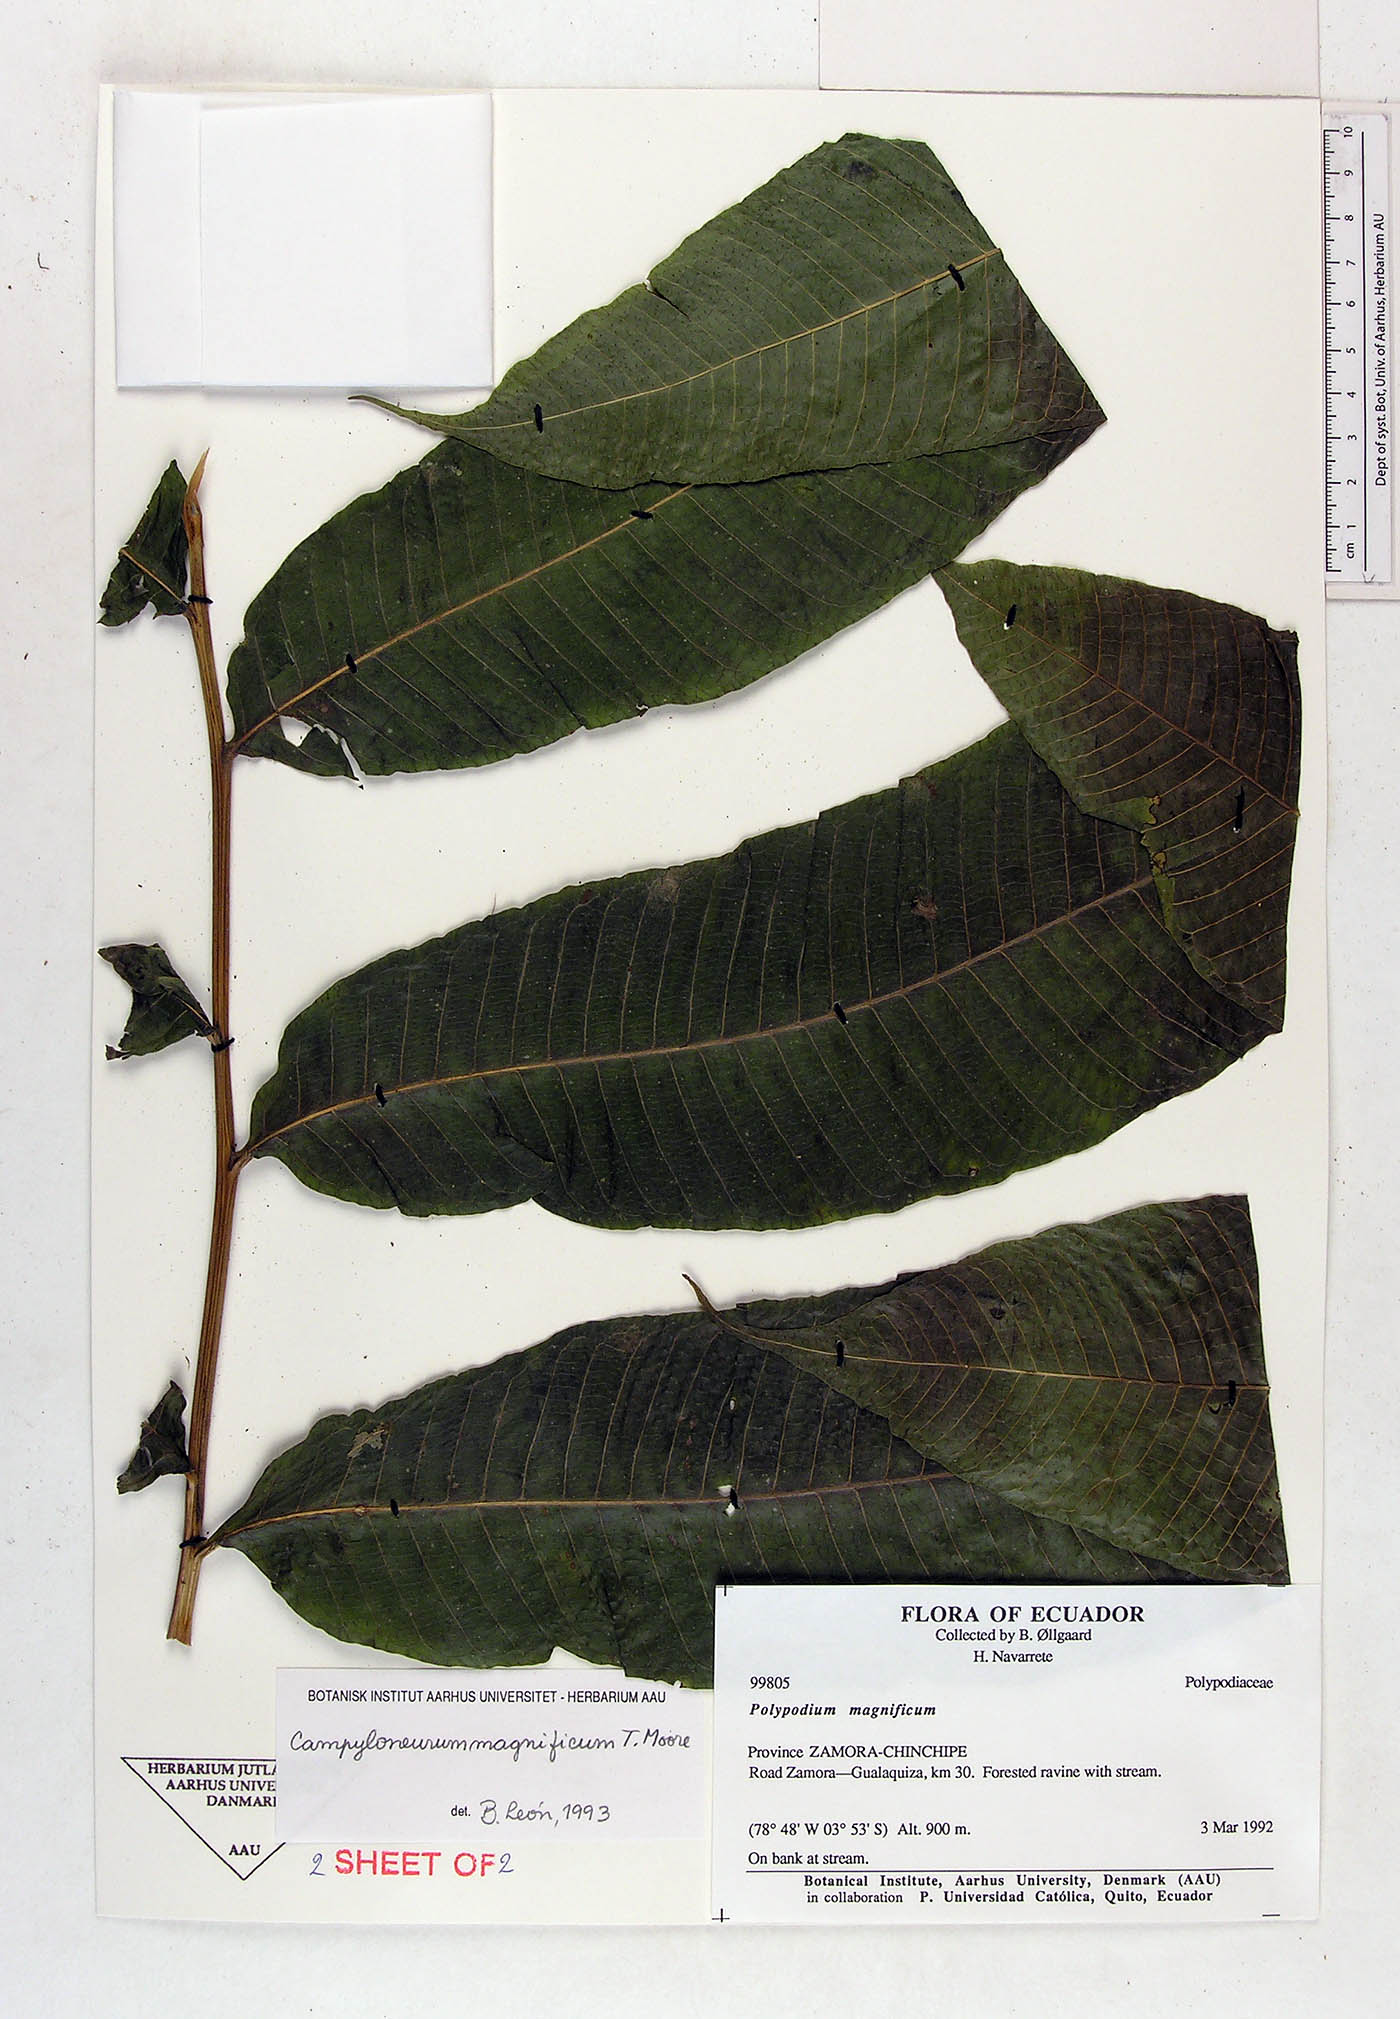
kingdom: Plantae
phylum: Tracheophyta
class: Polypodiopsida
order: Polypodiales
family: Polypodiaceae
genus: Campyloneurum
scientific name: Campyloneurum magnificum
